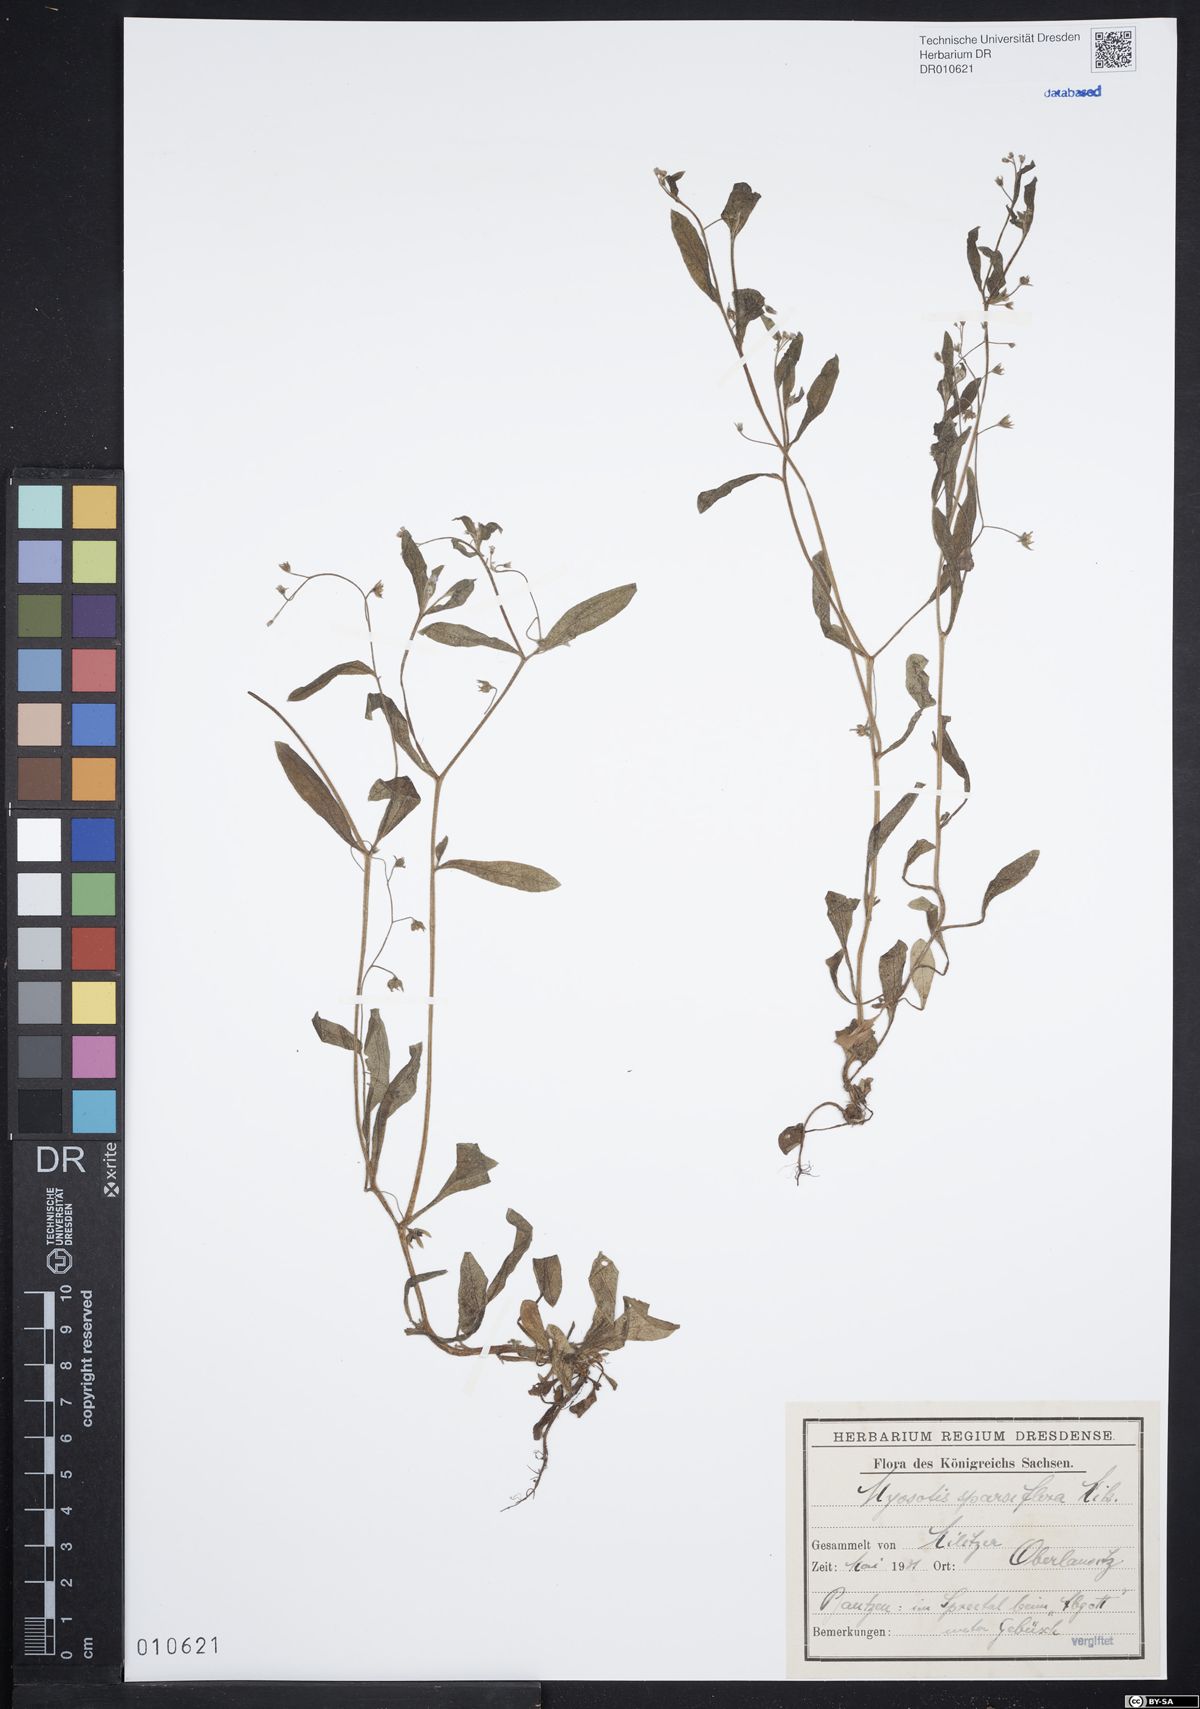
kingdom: Plantae
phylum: Tracheophyta
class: Magnoliopsida
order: Boraginales
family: Boraginaceae
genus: Myosotis
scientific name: Myosotis sparsiflora
